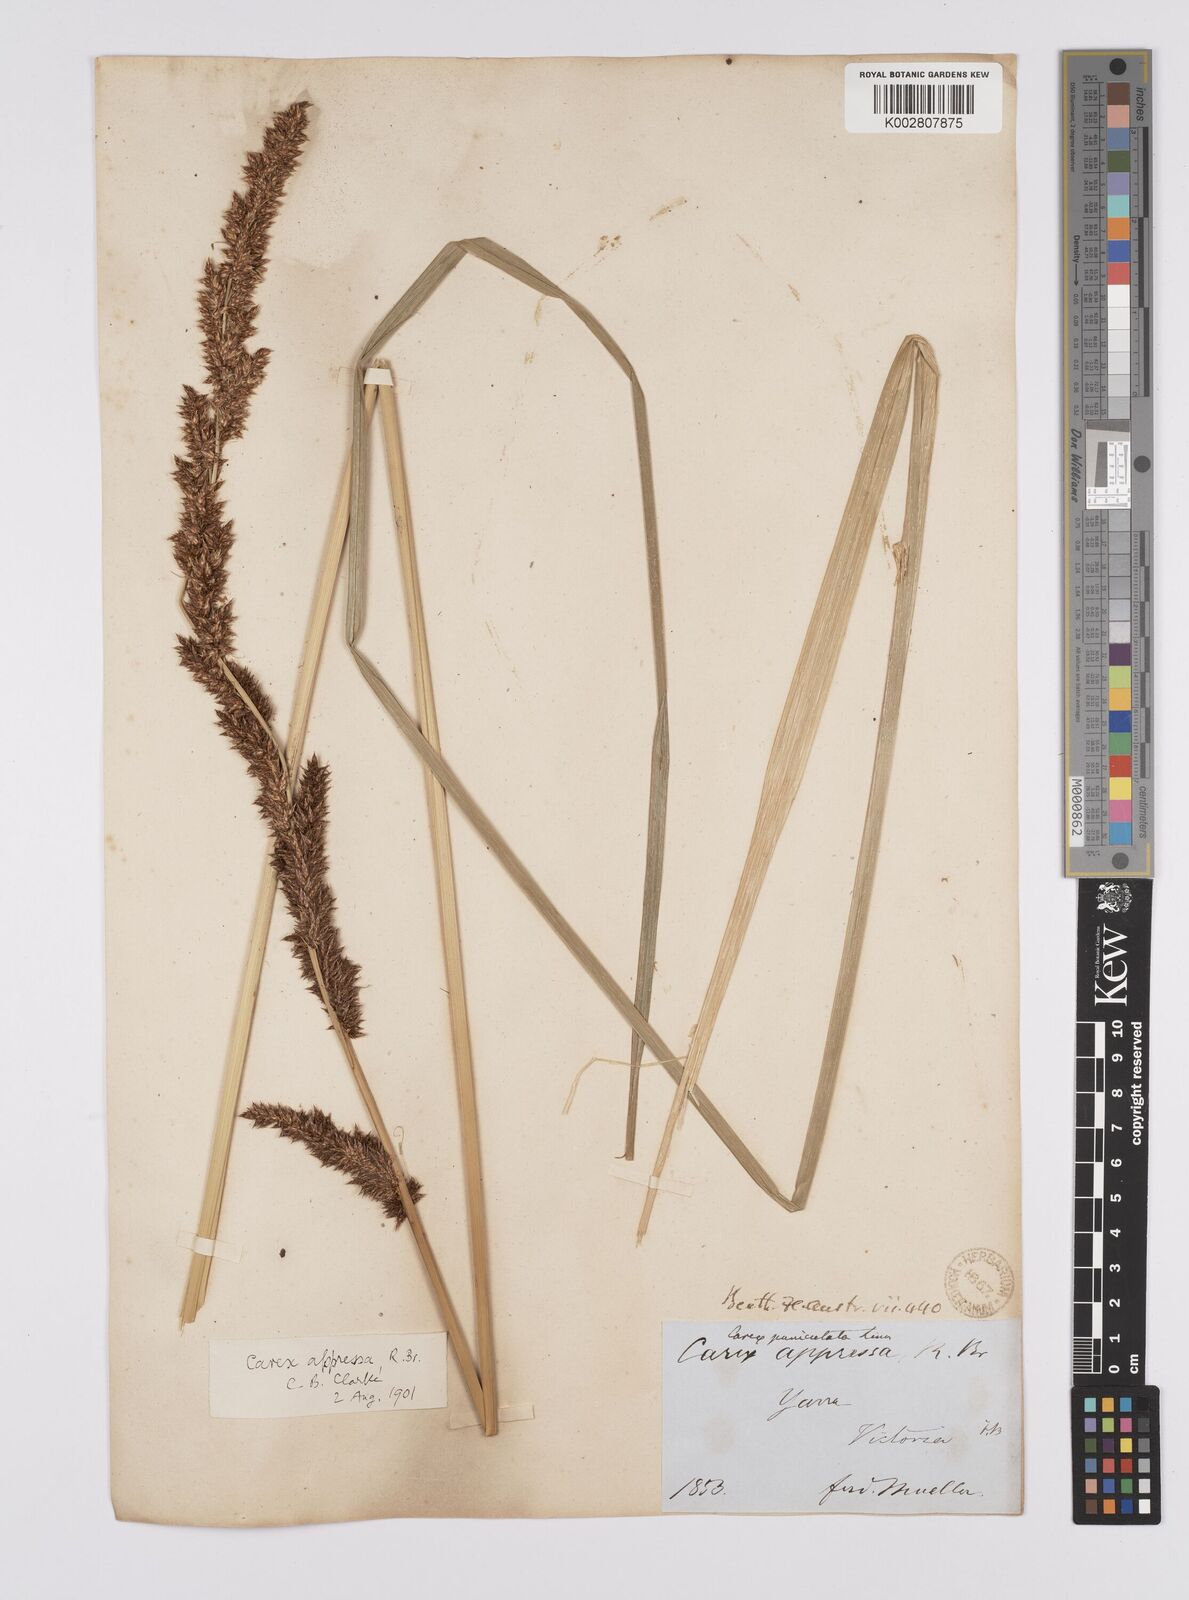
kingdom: Plantae
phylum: Tracheophyta
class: Liliopsida
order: Poales
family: Cyperaceae
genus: Carex
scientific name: Carex appressa
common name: Tussock sedge
